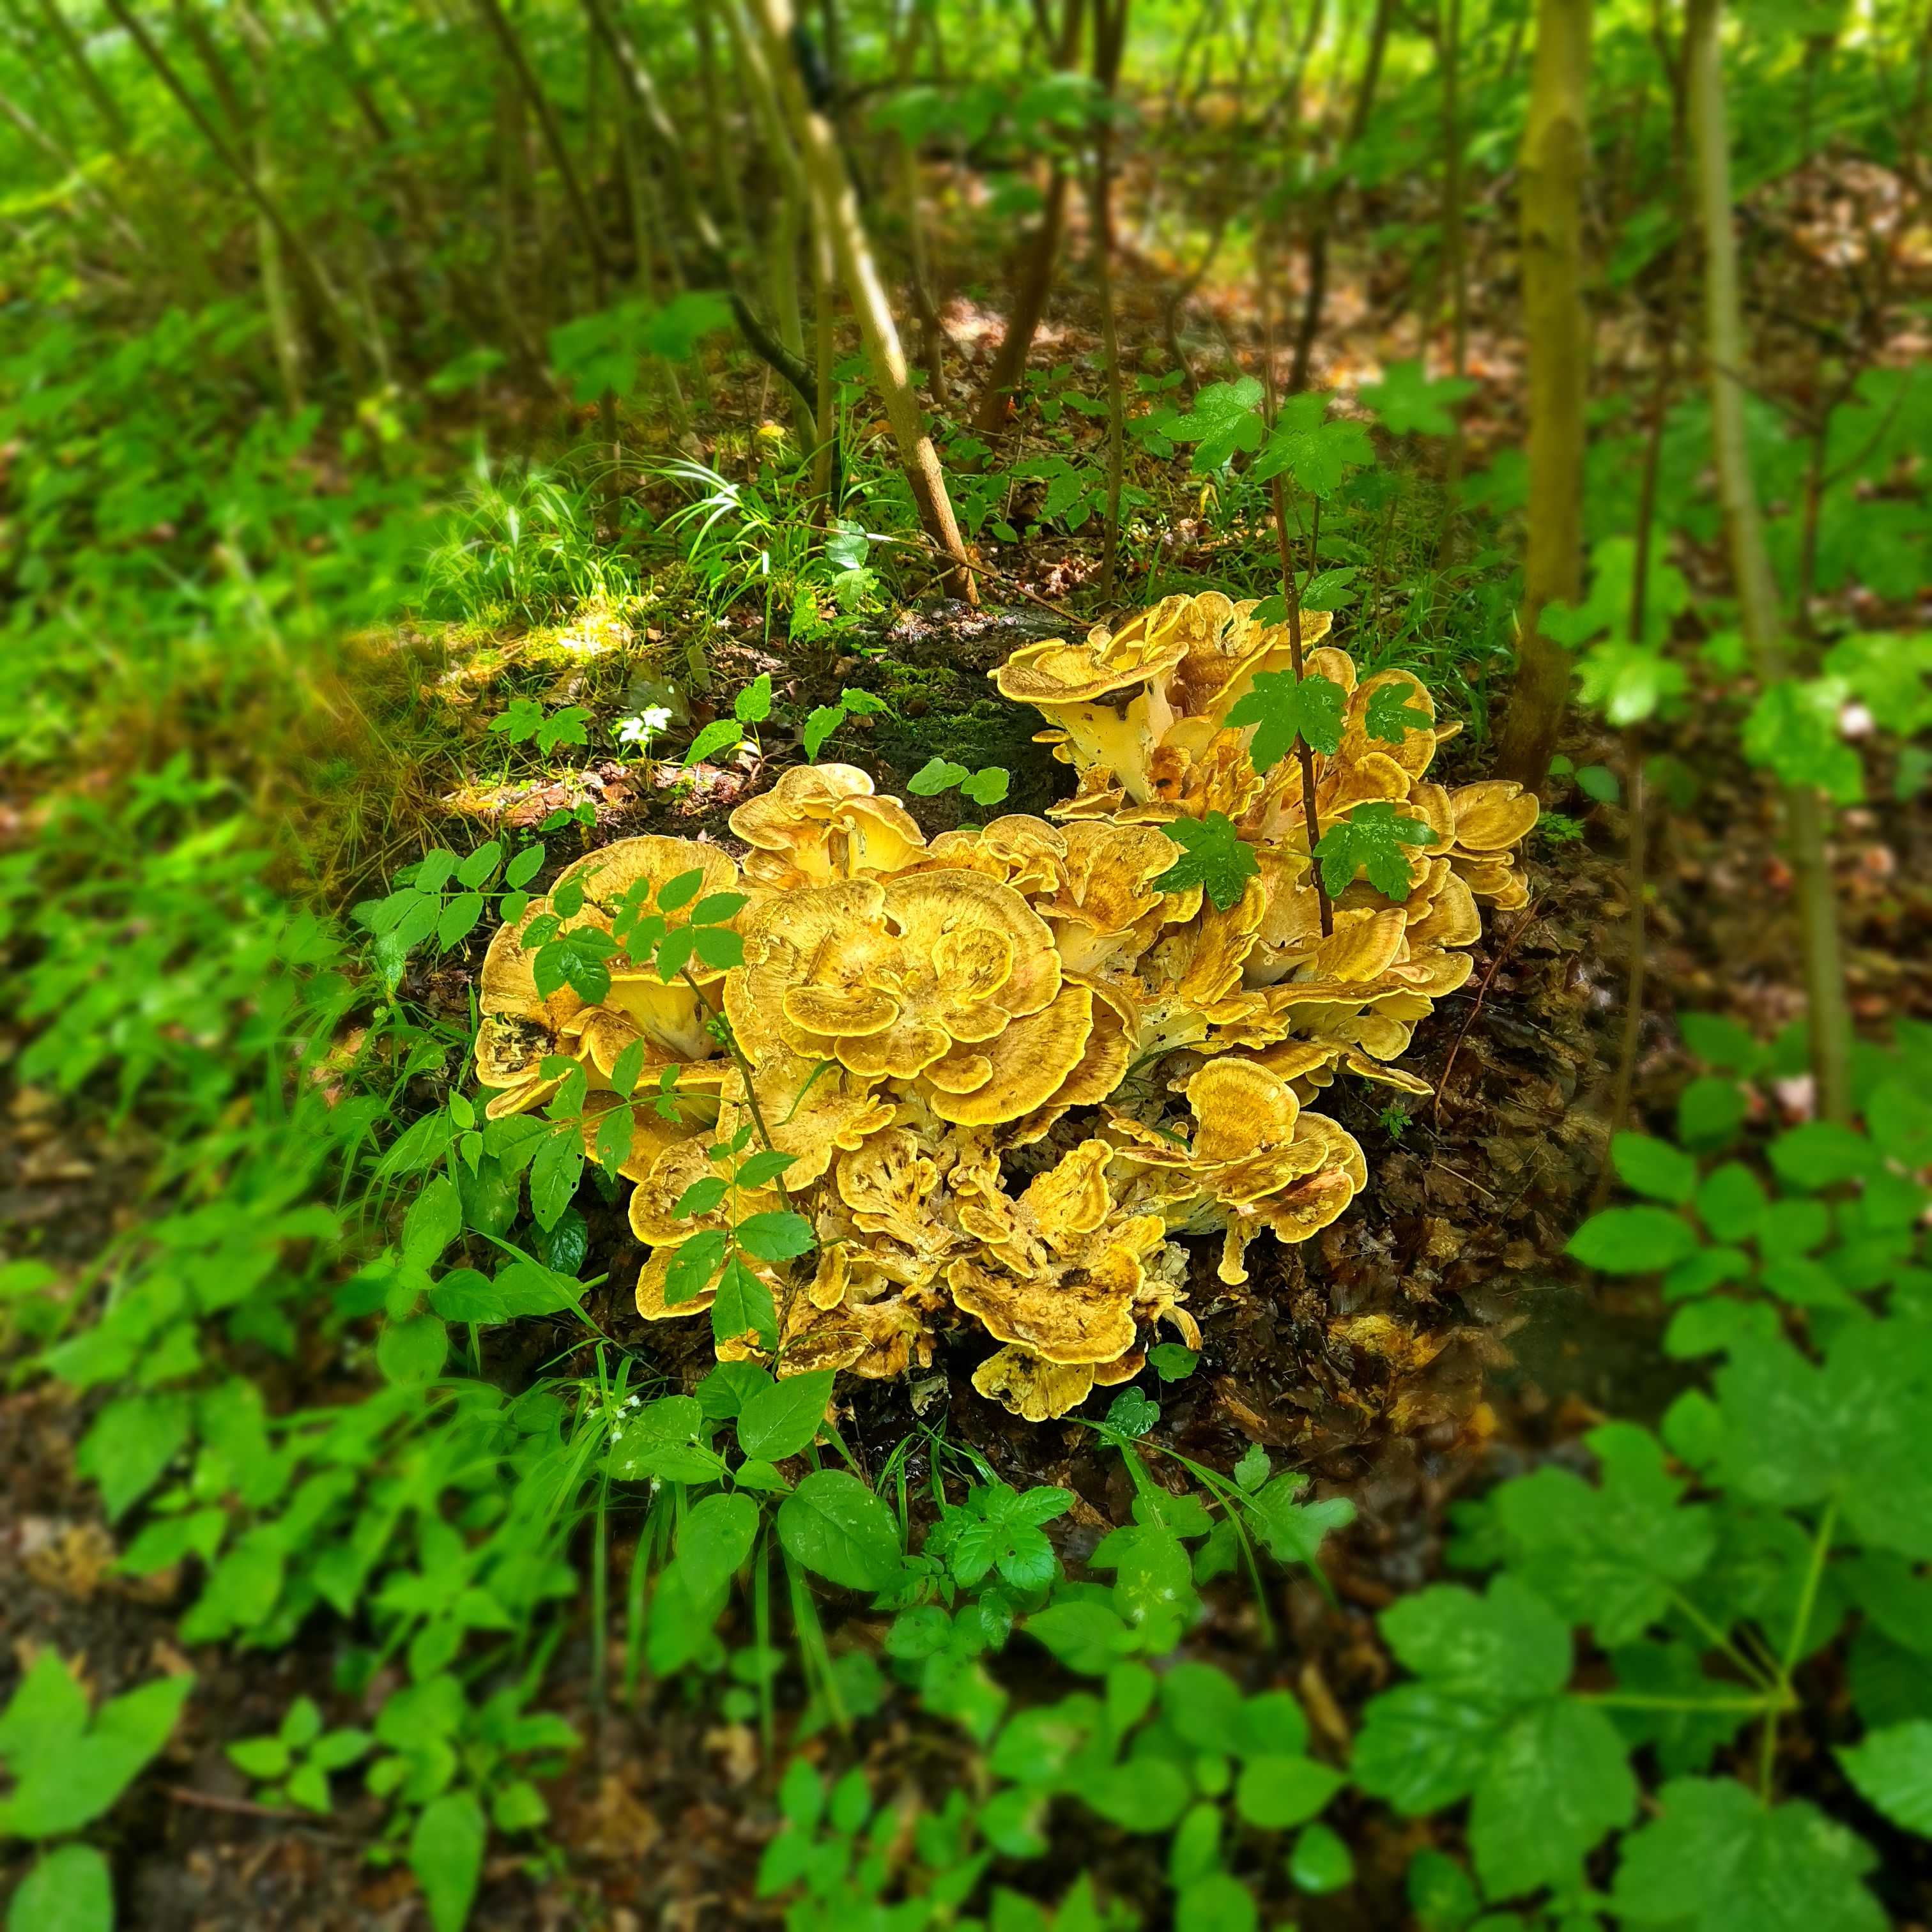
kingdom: Fungi
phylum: Basidiomycota
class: Agaricomycetes
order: Polyporales
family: Meripilaceae
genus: Meripilus
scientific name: Meripilus giganteus
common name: kæmpeporesvamp
